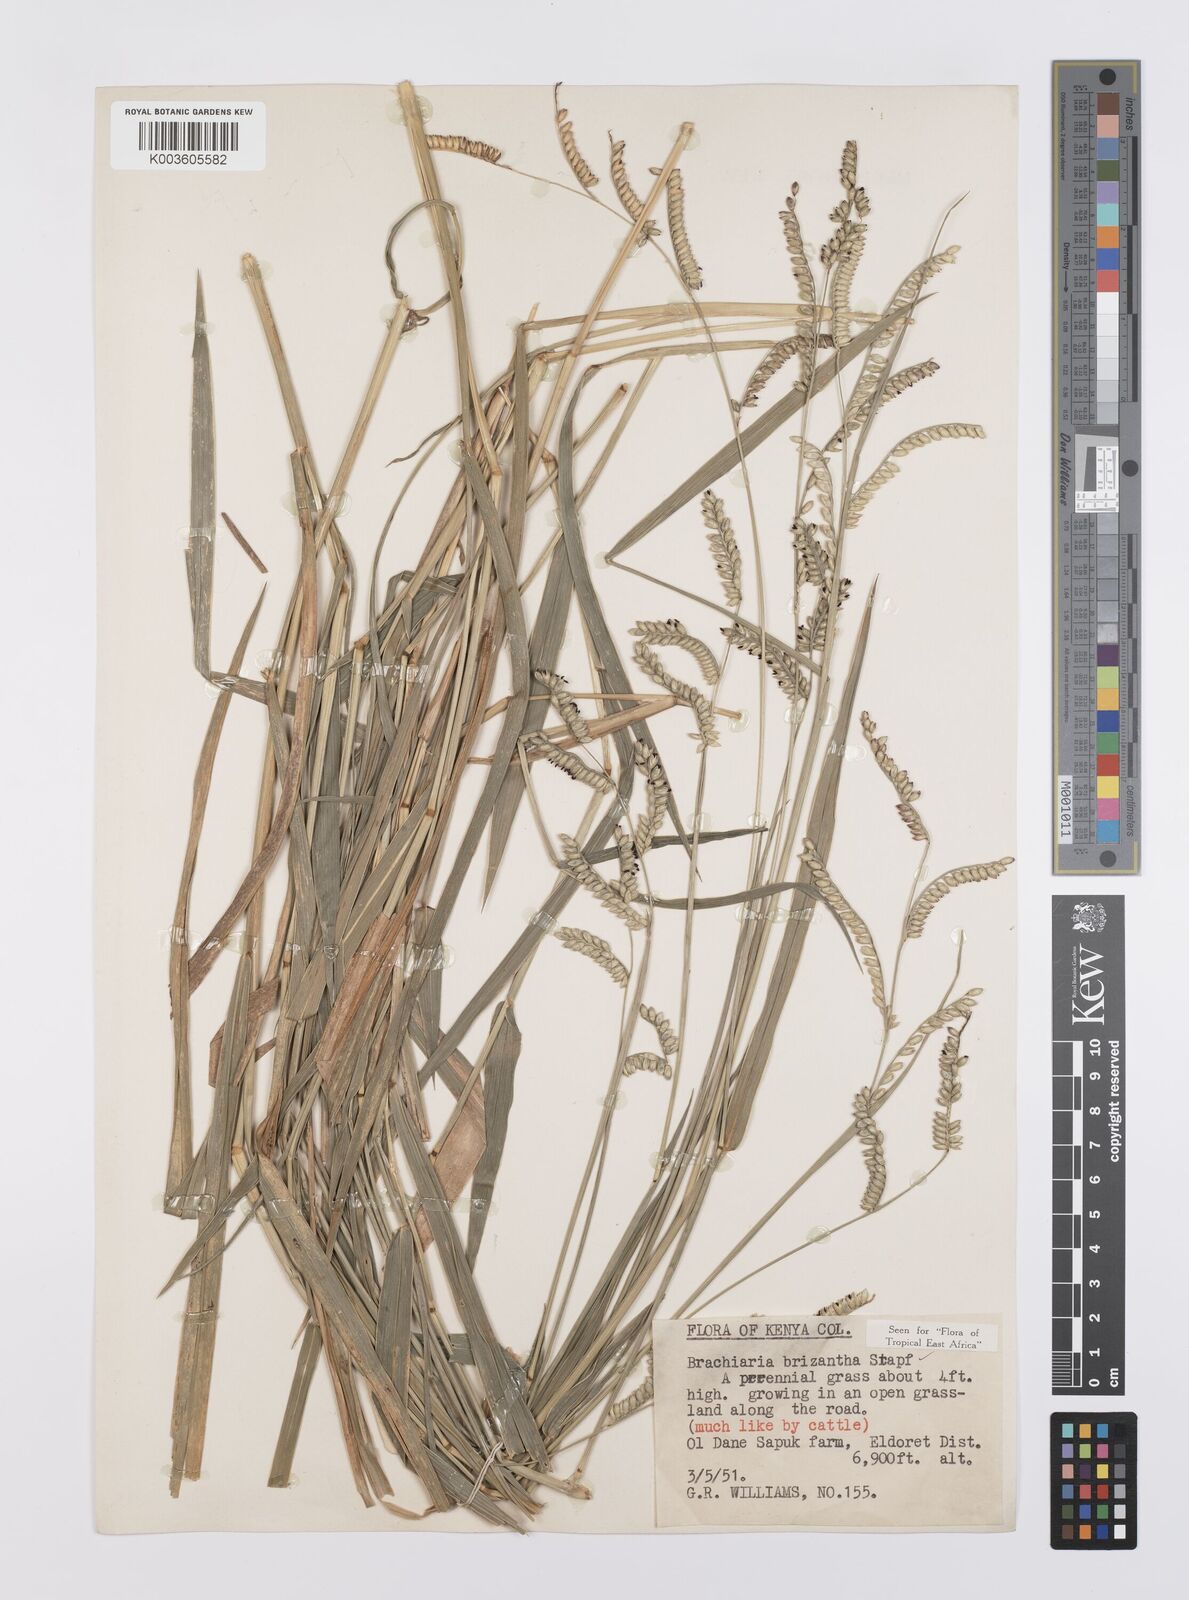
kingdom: Plantae
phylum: Tracheophyta
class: Liliopsida
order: Poales
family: Poaceae
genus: Urochloa
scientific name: Urochloa brizantha
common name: Palisade signalgrass
